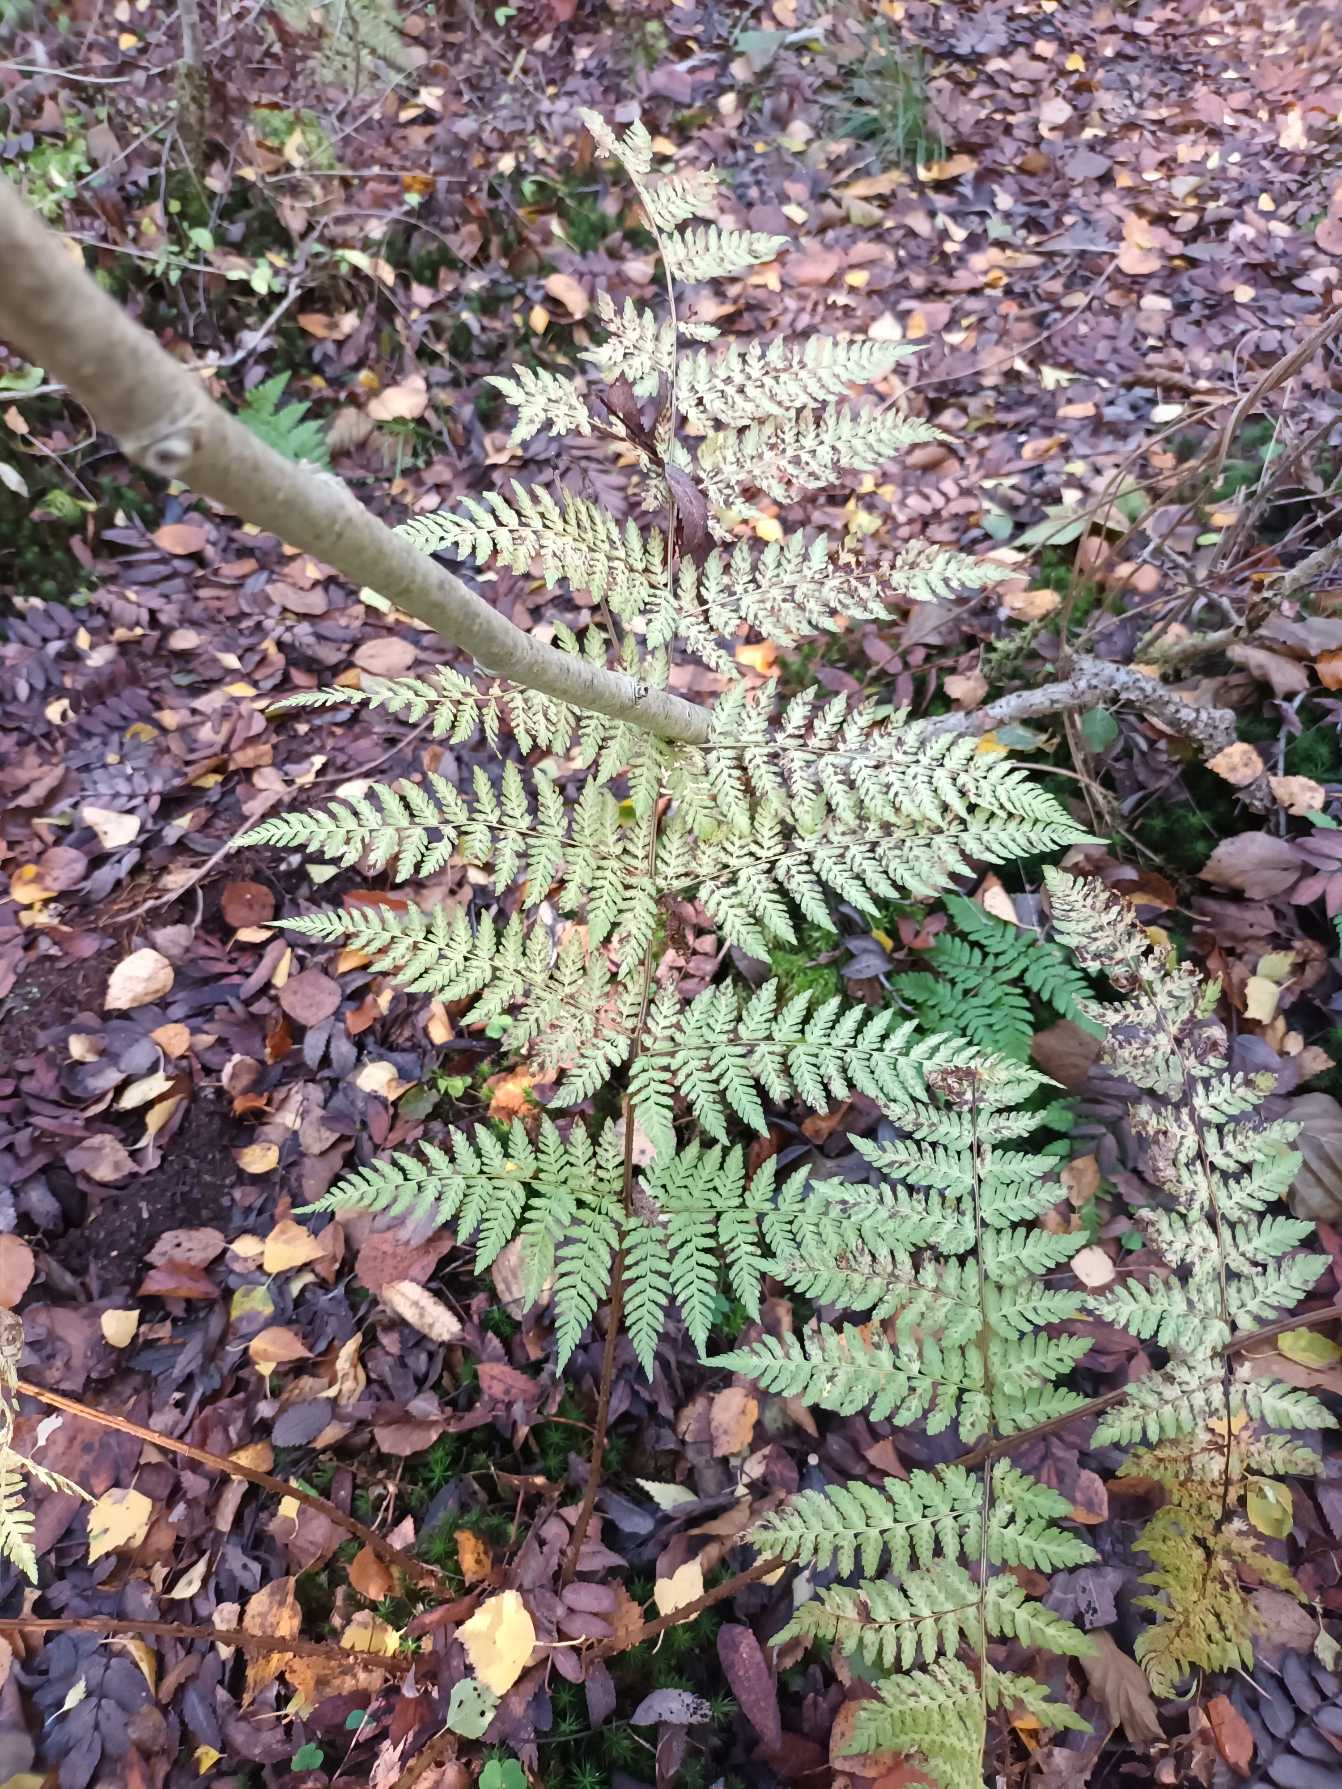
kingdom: Plantae
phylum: Tracheophyta
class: Polypodiopsida
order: Polypodiales
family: Dryopteridaceae
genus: Dryopteris
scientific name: Dryopteris expansa
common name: Finbladet mangeløv
